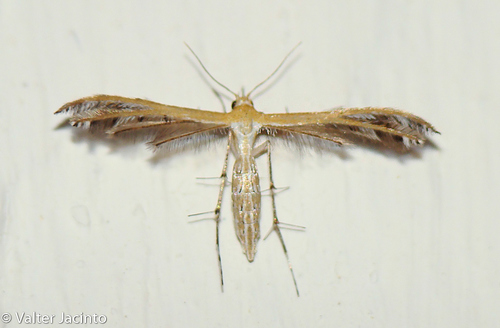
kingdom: Animalia
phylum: Arthropoda
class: Insecta
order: Lepidoptera
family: Pterophoridae
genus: Stangeia
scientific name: Stangeia siceliota
